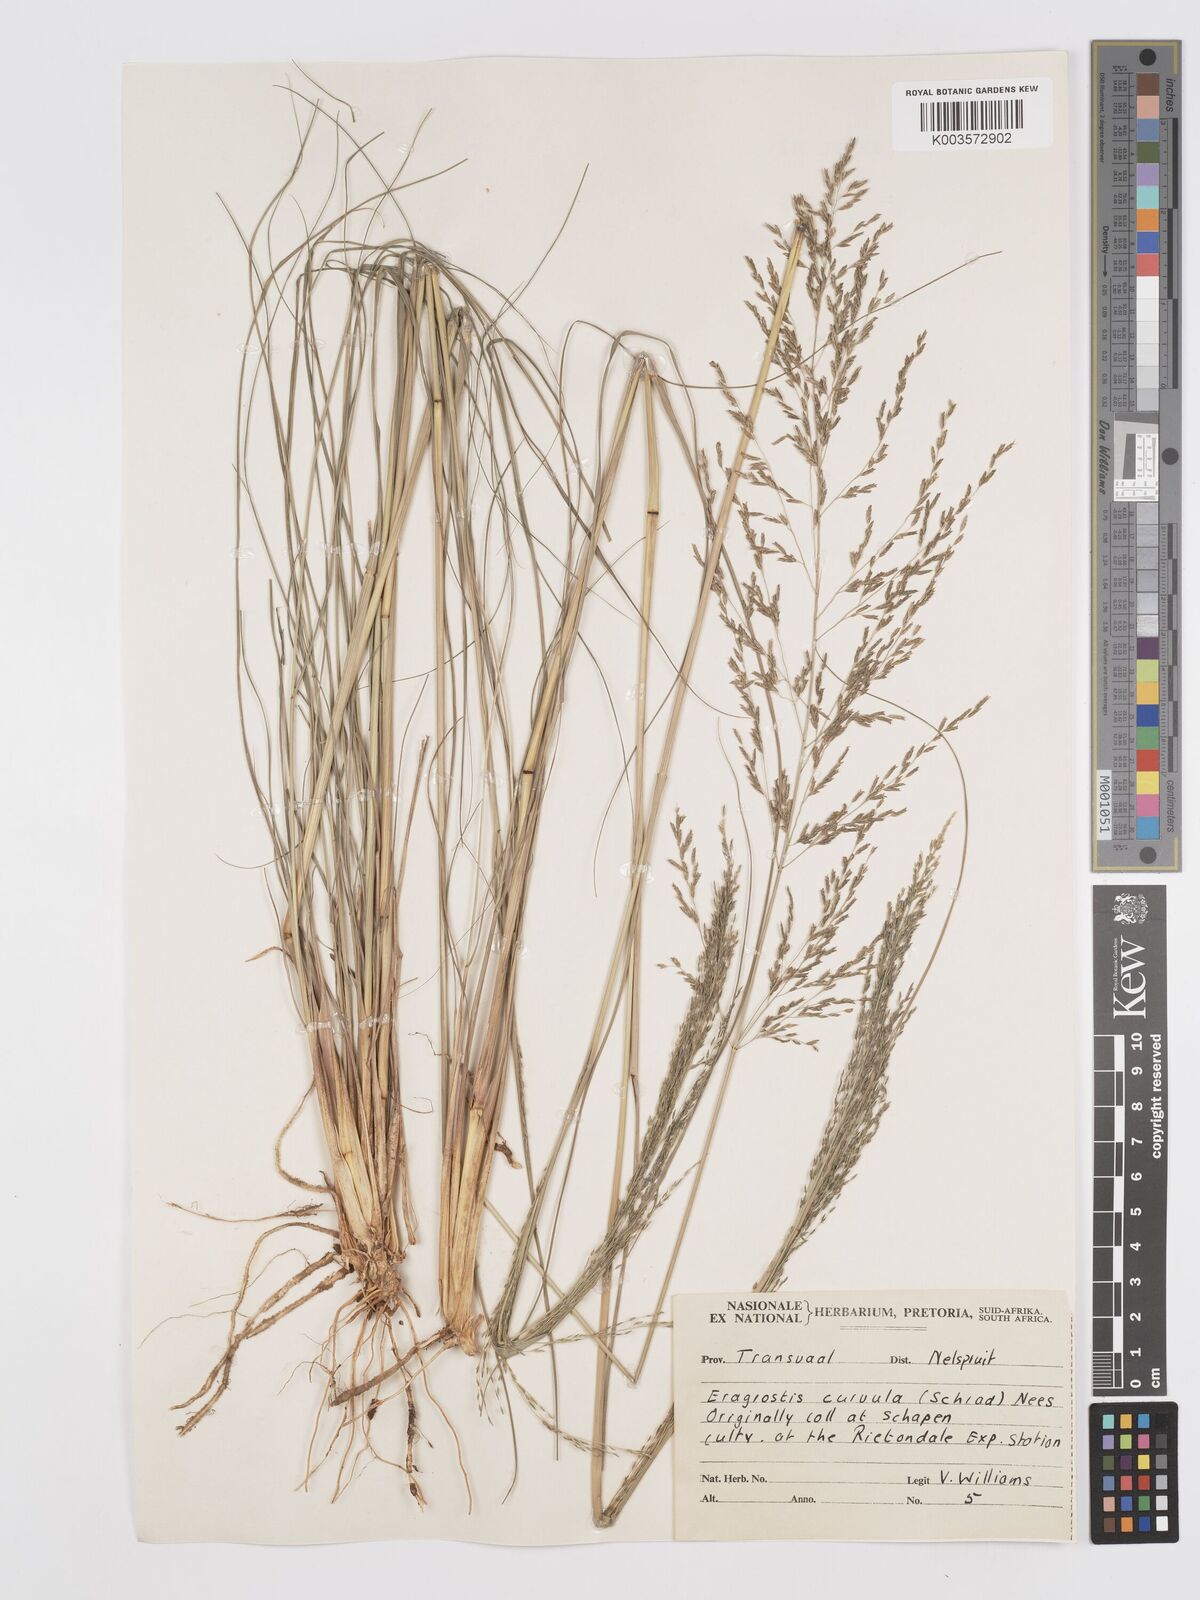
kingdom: Plantae
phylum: Tracheophyta
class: Liliopsida
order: Poales
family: Poaceae
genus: Eragrostis
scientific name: Eragrostis curvula
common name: African love-grass
